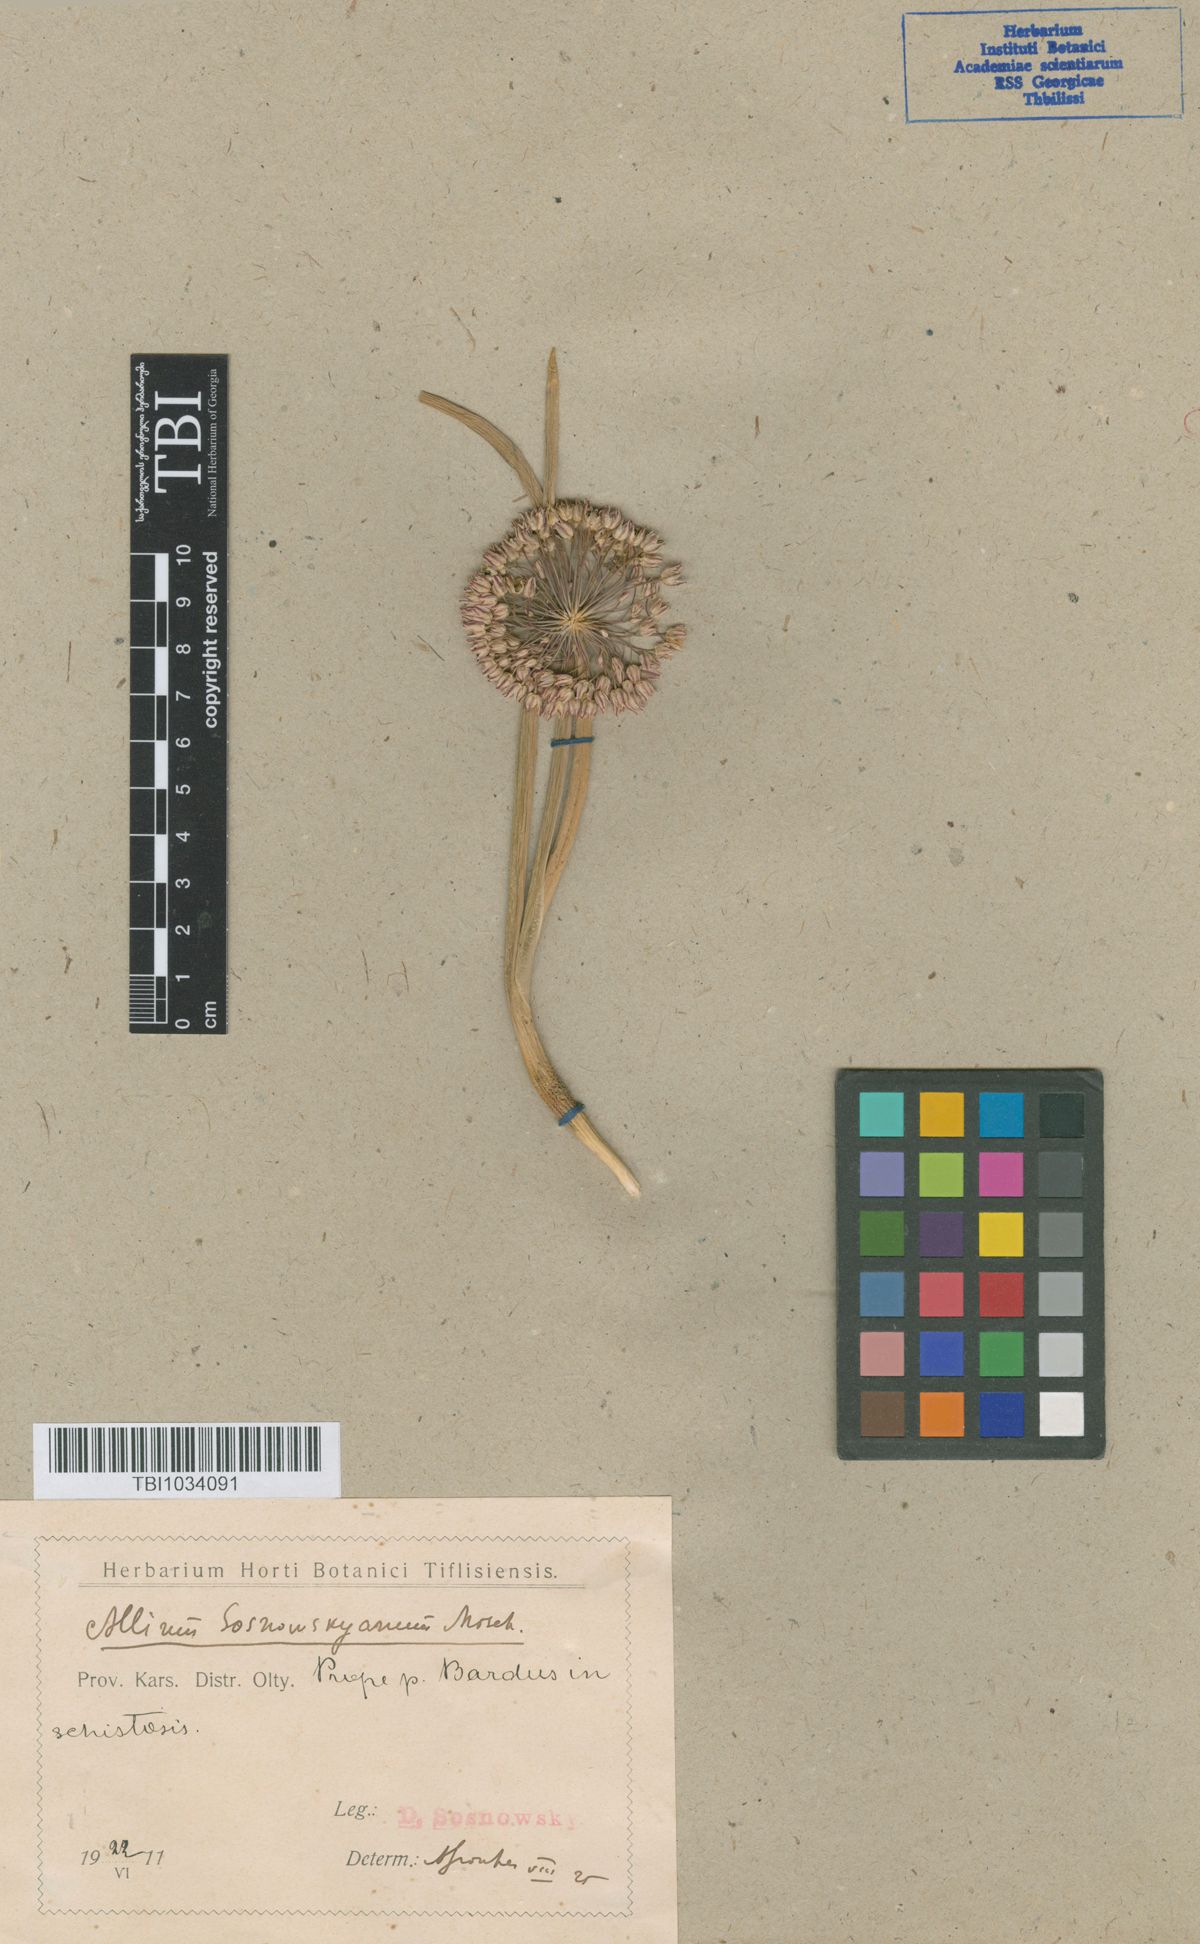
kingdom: Plantae
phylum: Tracheophyta
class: Liliopsida
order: Asparagales
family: Amaryllidaceae
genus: Allium
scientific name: Allium sosnovskyanum
